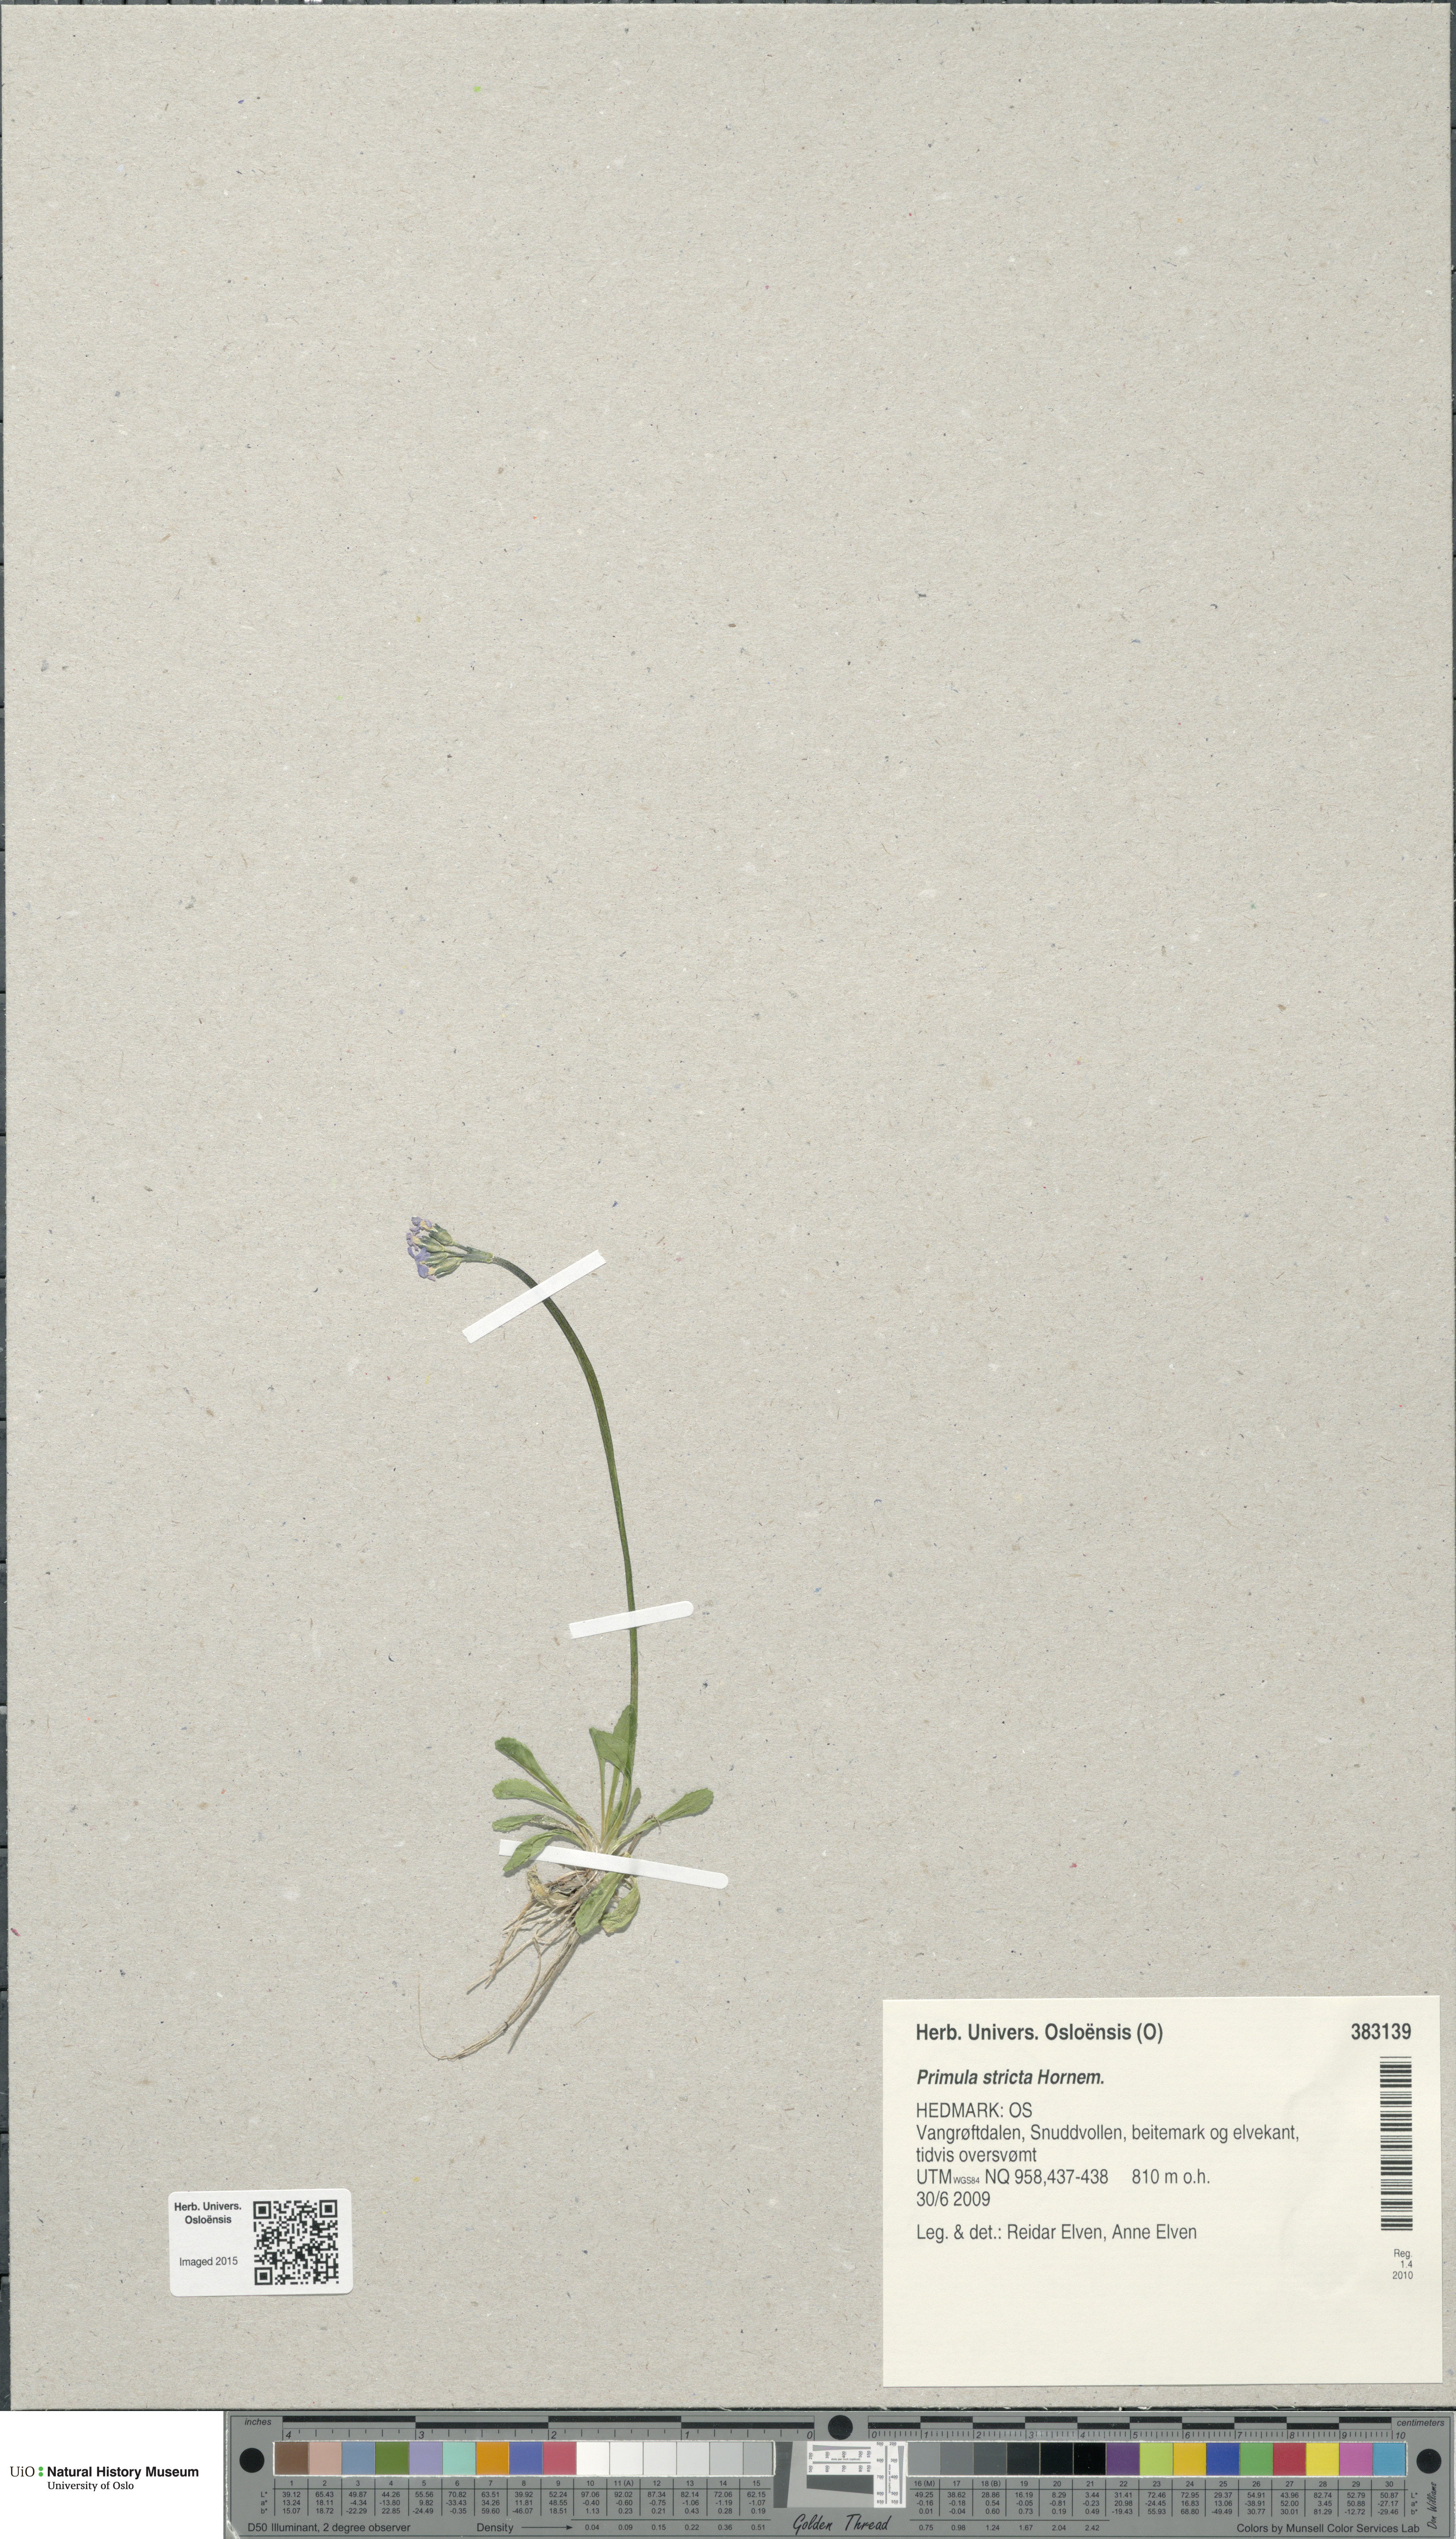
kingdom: Plantae
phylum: Tracheophyta
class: Magnoliopsida
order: Ericales
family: Primulaceae
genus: Primula
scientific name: Primula stricta
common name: Coastal primrose
